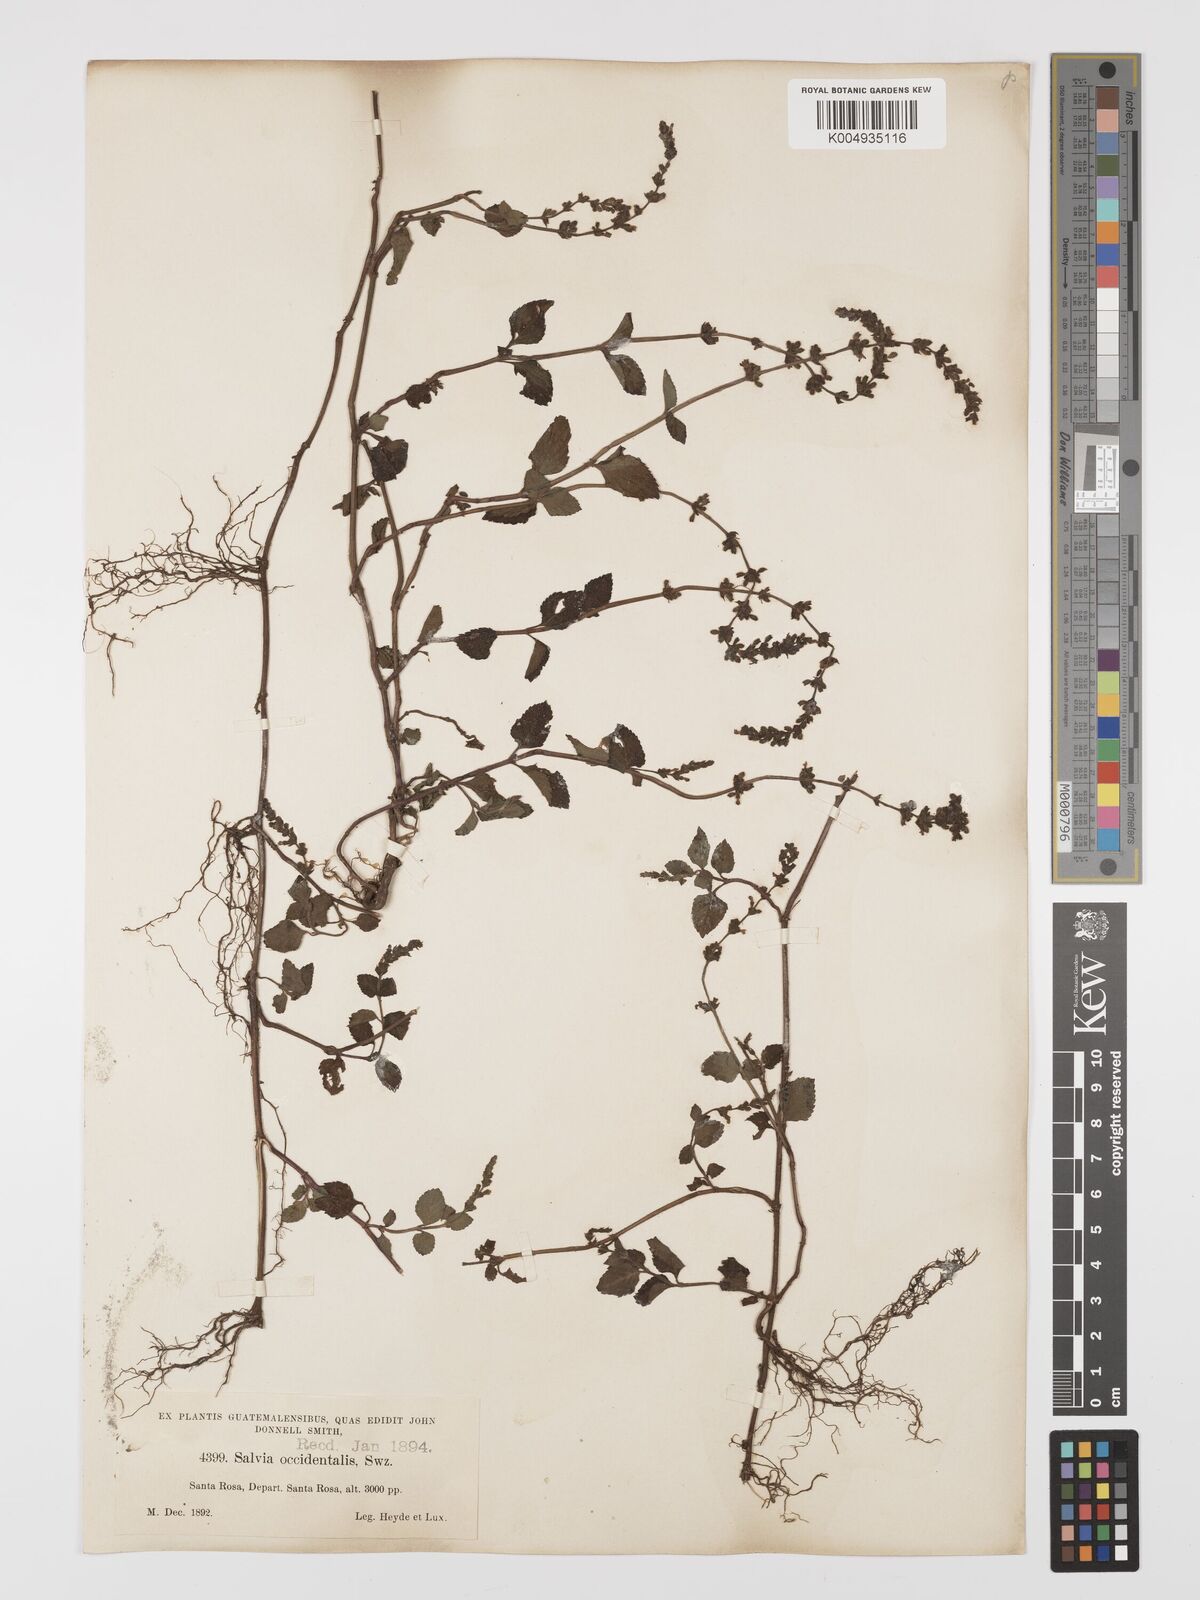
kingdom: Plantae
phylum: Tracheophyta
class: Magnoliopsida
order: Lamiales
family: Lamiaceae
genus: Salvia
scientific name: Salvia occidentalis
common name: West indian sage
